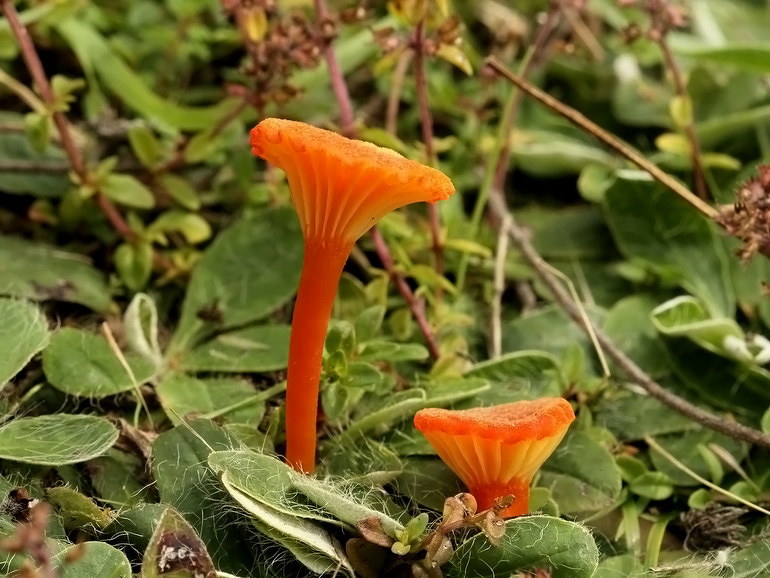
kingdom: Fungi
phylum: Basidiomycota
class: Agaricomycetes
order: Agaricales
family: Hygrophoraceae
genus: Hygrocybe
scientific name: Hygrocybe cantharellus
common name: kantarel-vokshat
